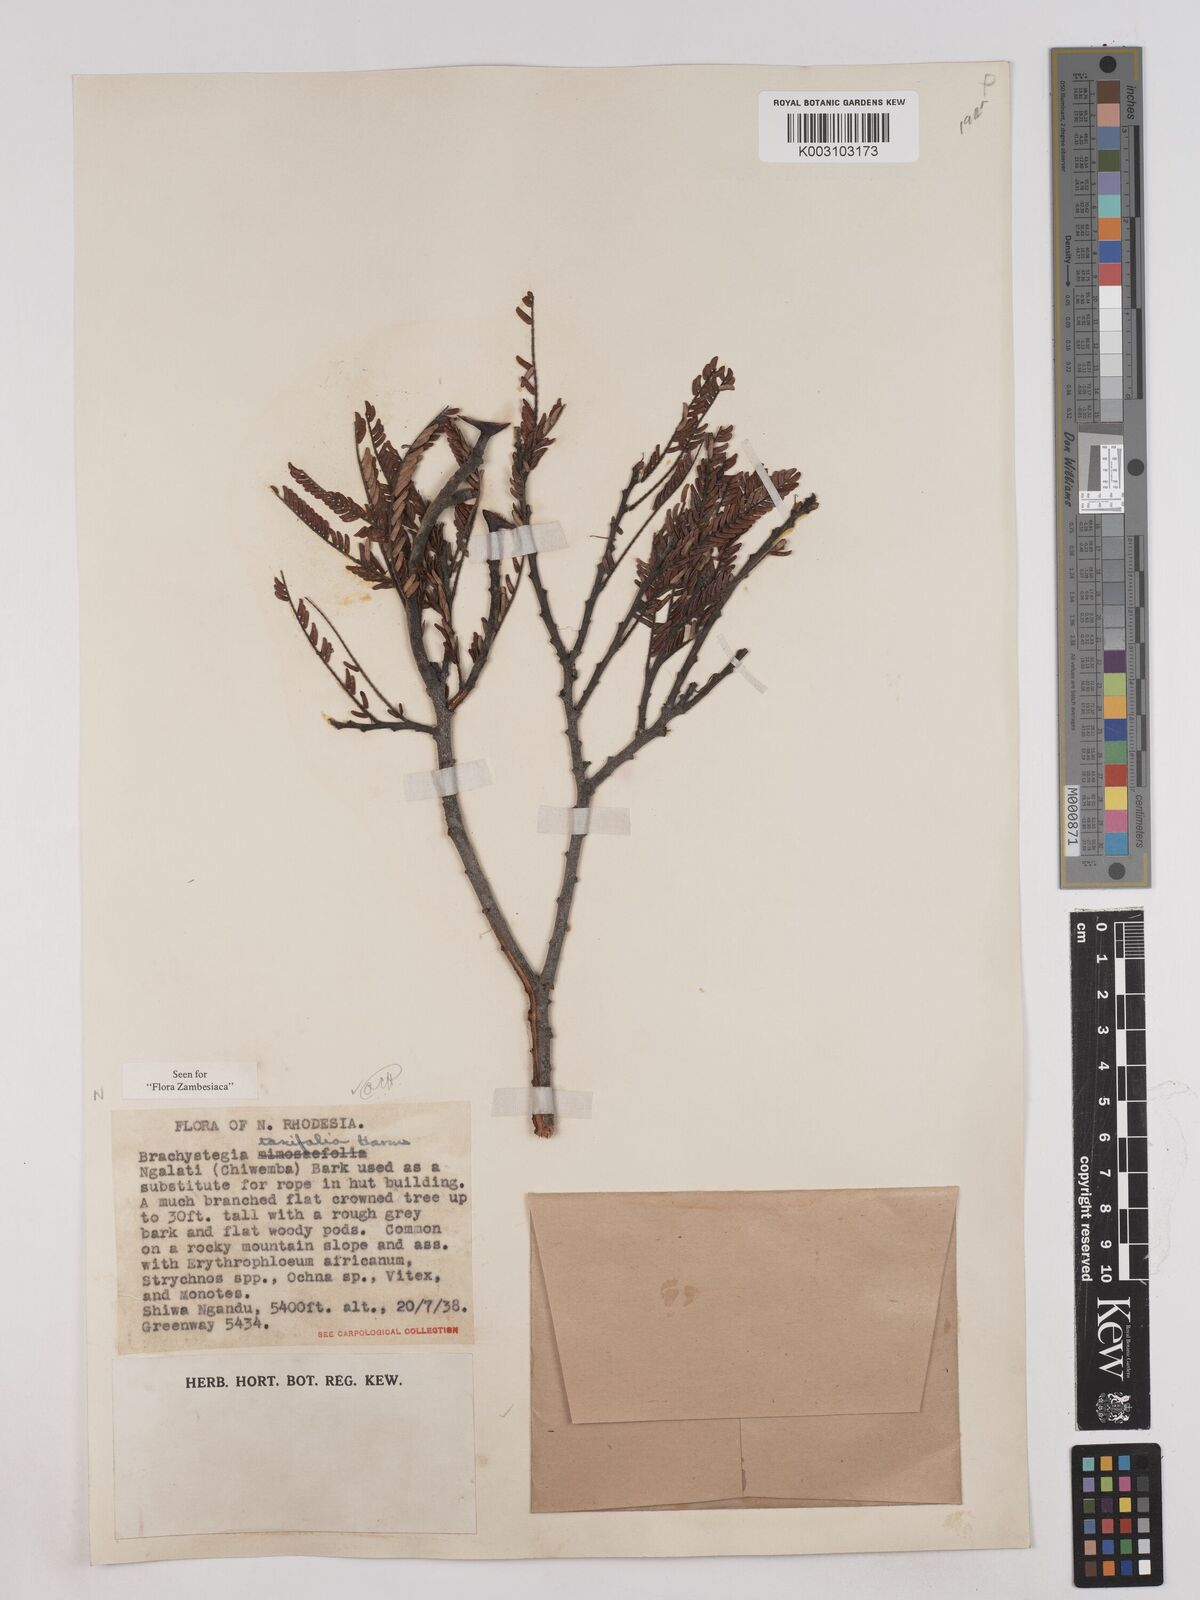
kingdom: Plantae
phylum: Tracheophyta
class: Magnoliopsida
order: Fabales
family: Fabaceae
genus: Brachystegia
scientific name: Brachystegia taxifolia
